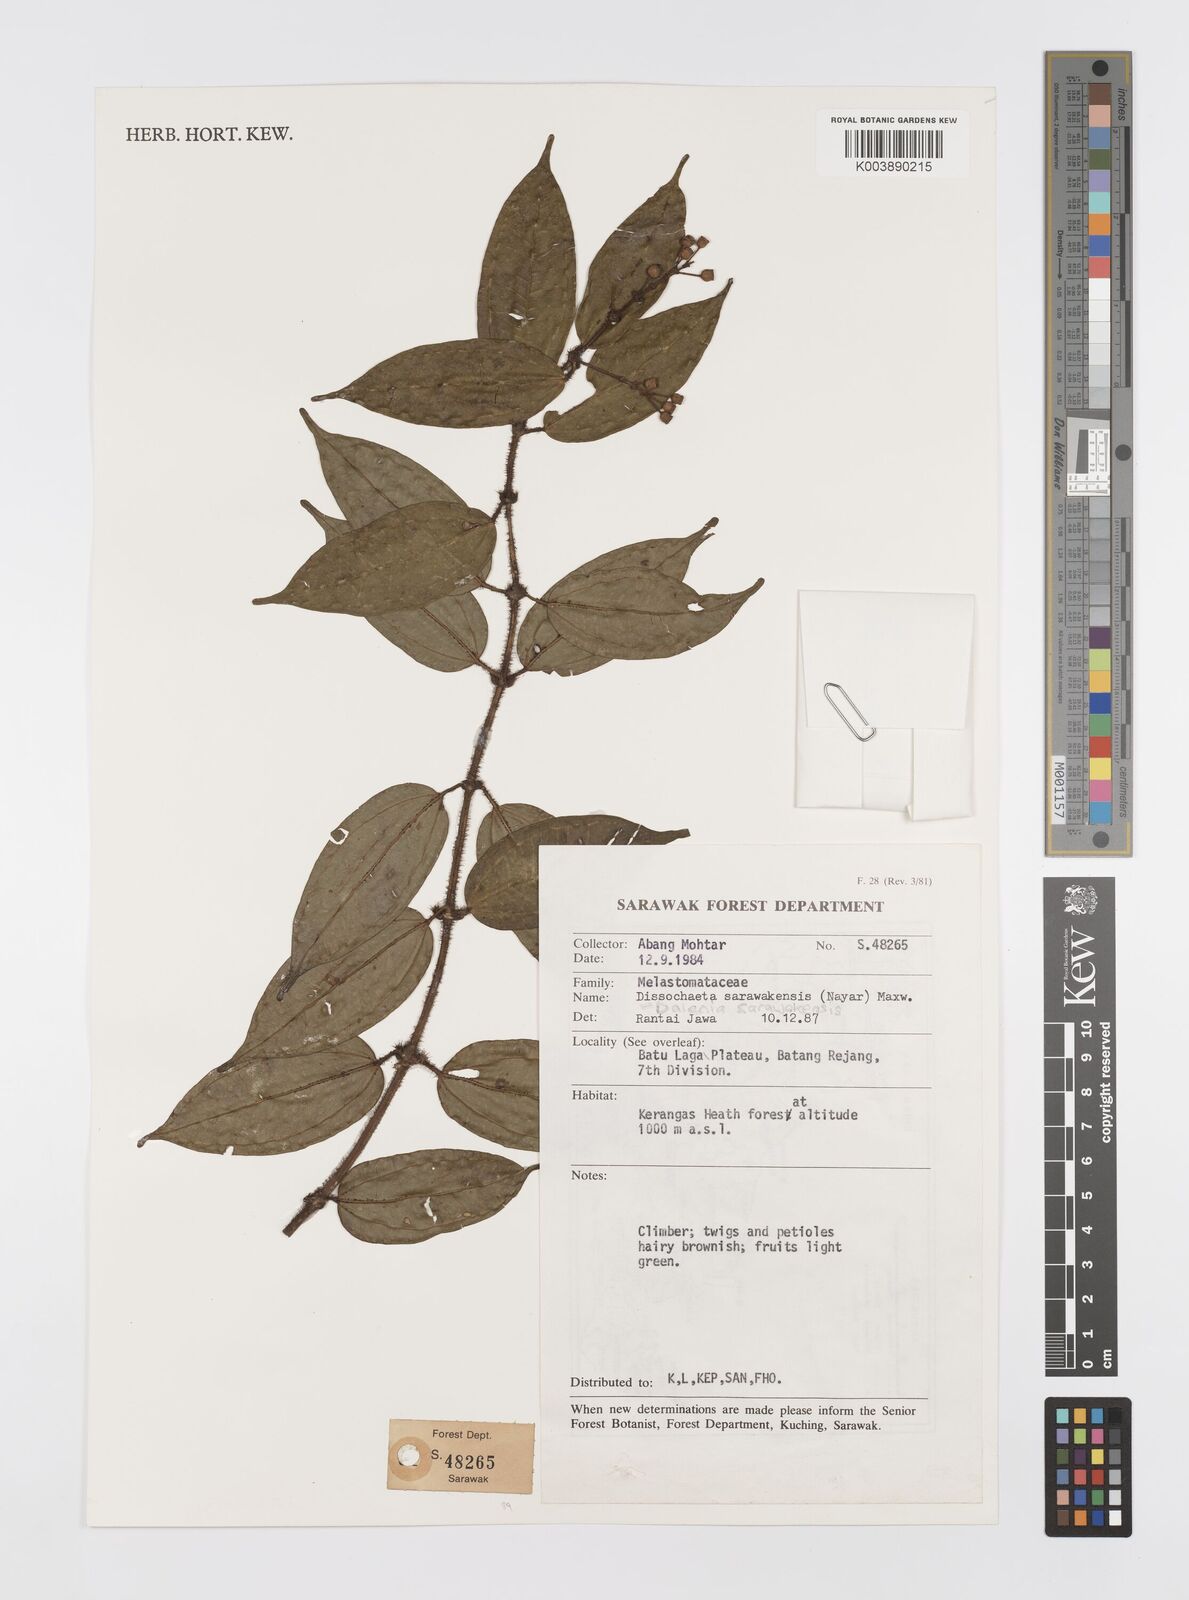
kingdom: Plantae
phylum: Tracheophyta
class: Magnoliopsida
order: Myrtales
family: Melastomataceae
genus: Dalenia
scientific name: Dalenia
